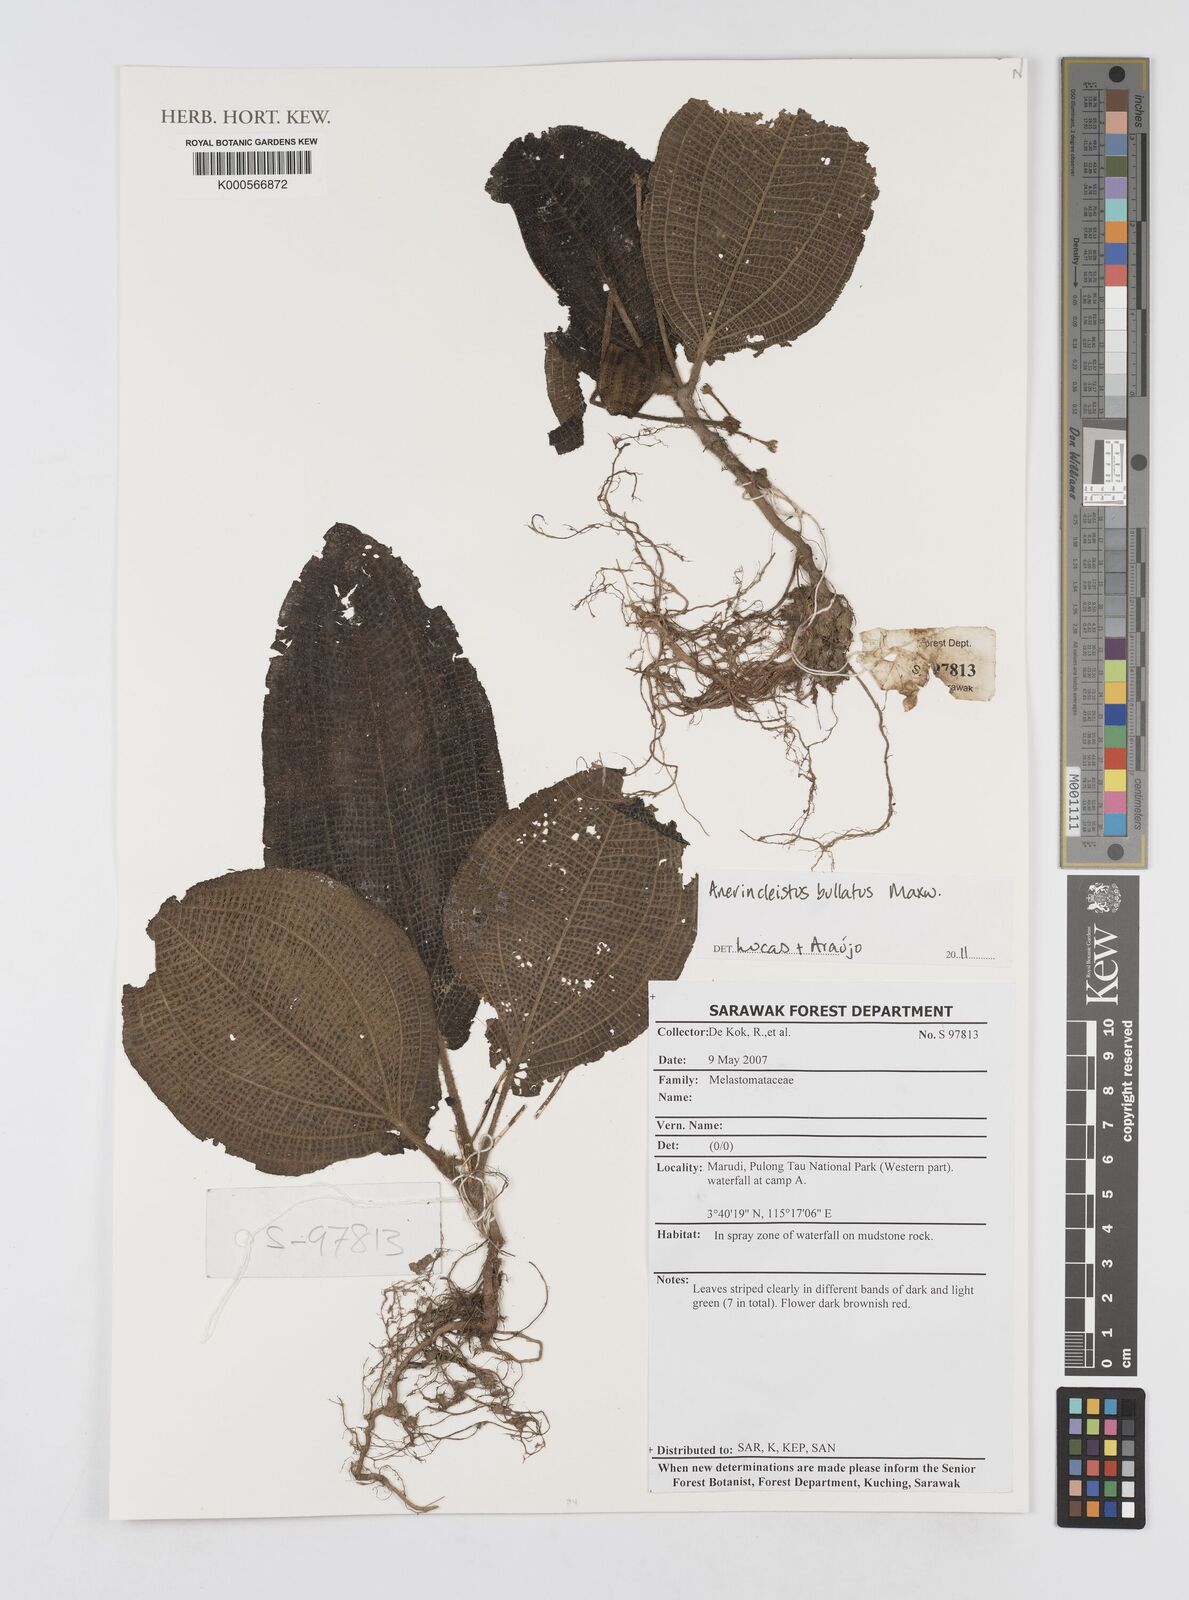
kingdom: Plantae
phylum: Tracheophyta
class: Magnoliopsida
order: Myrtales
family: Melastomataceae
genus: Anerincleistus
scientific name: Anerincleistus bullatus
